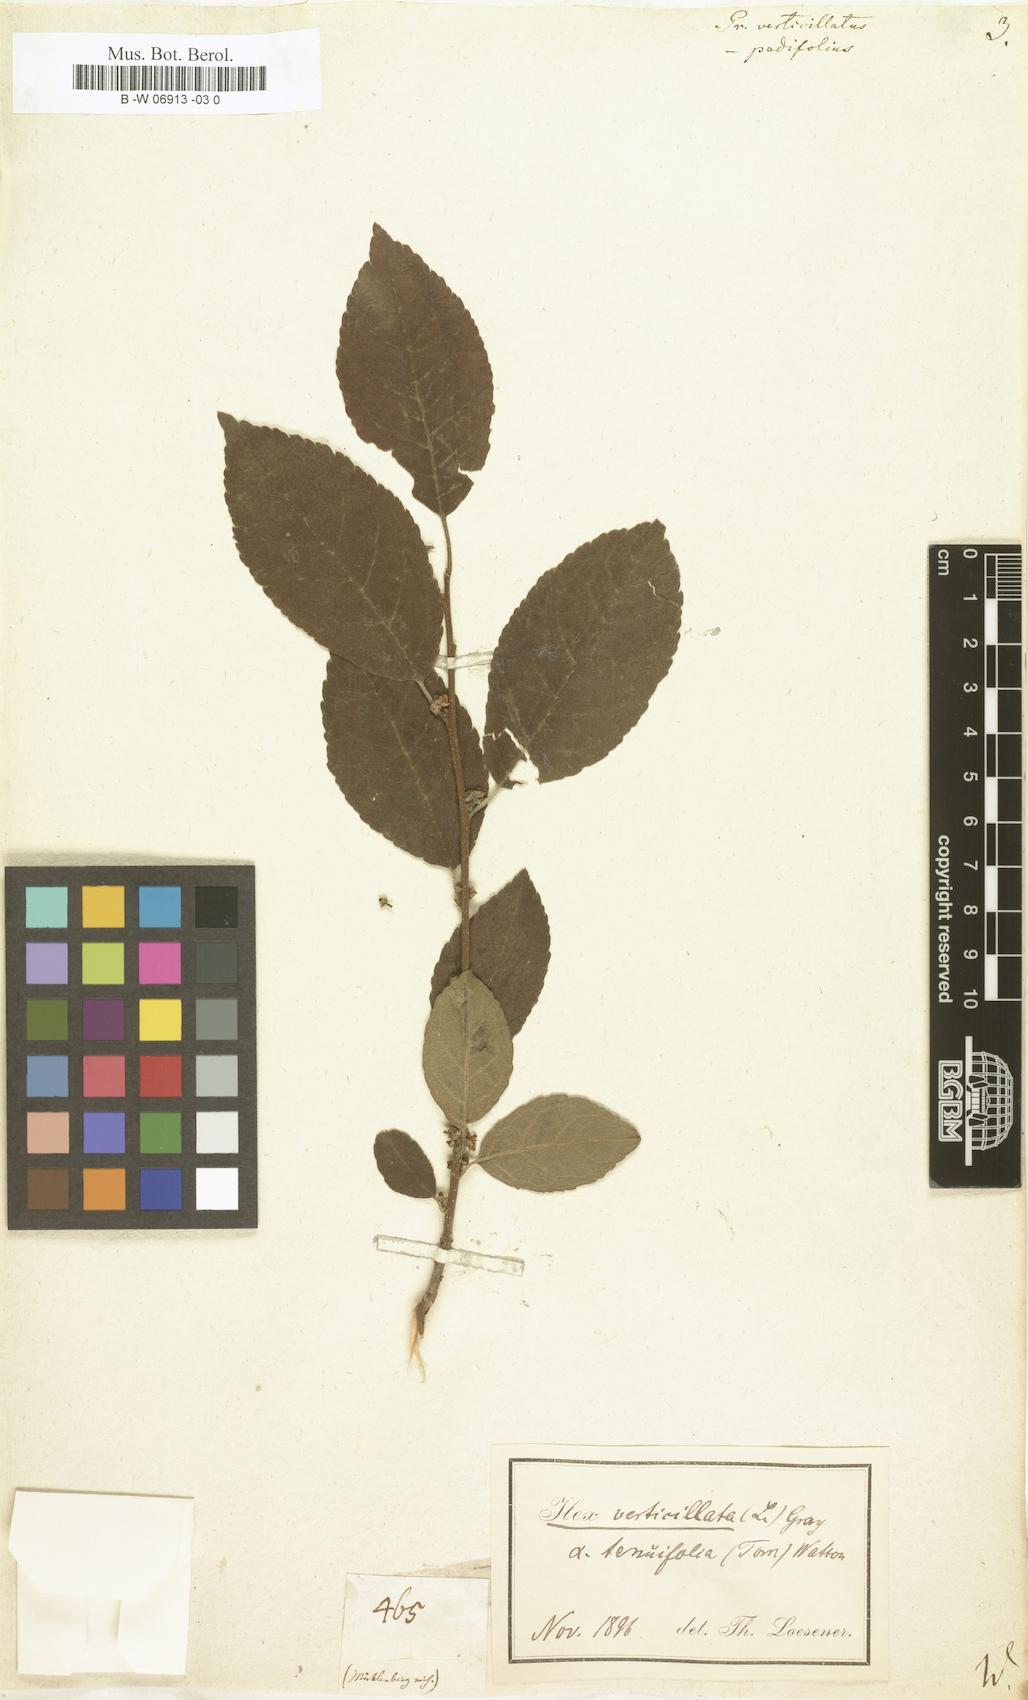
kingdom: Plantae
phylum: Tracheophyta
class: Magnoliopsida
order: Aquifoliales
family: Aquifoliaceae
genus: Ilex
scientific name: Ilex verticillata
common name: Virginia winterberry
